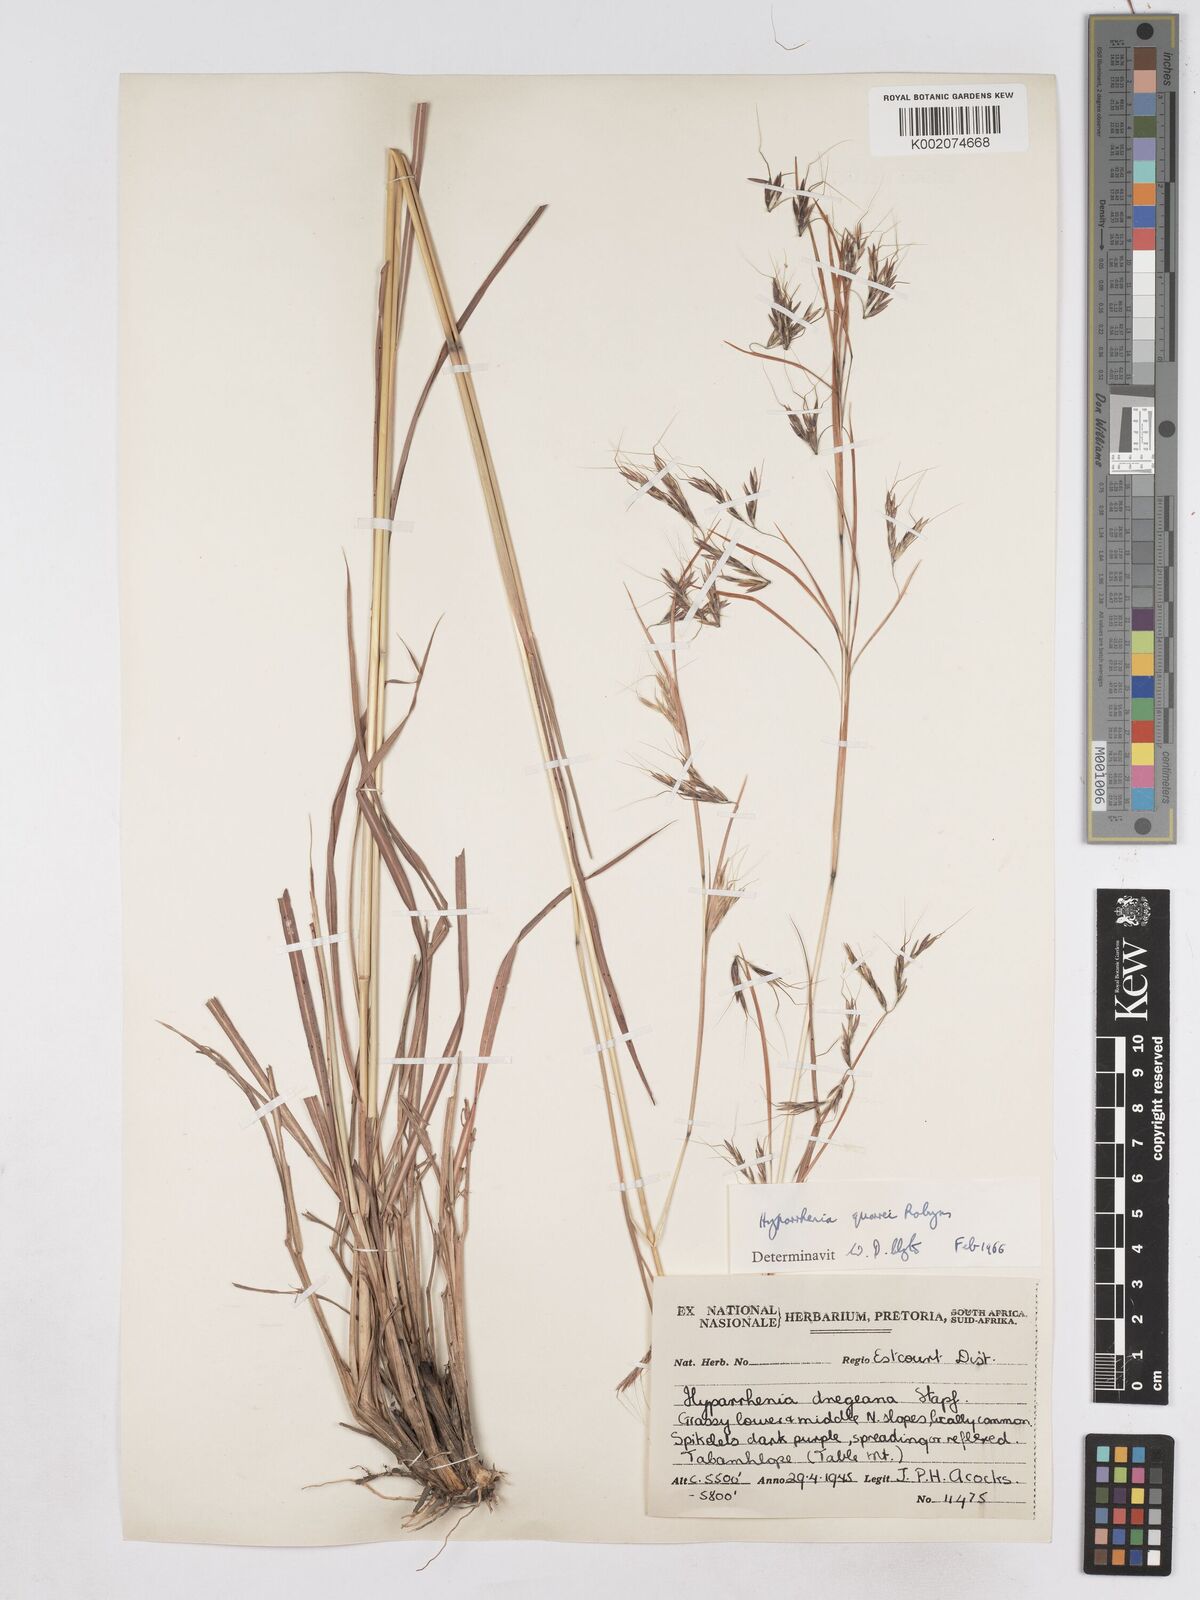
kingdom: Plantae
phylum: Tracheophyta
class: Liliopsida
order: Poales
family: Poaceae
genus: Hyparrhenia
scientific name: Hyparrhenia quarrei
